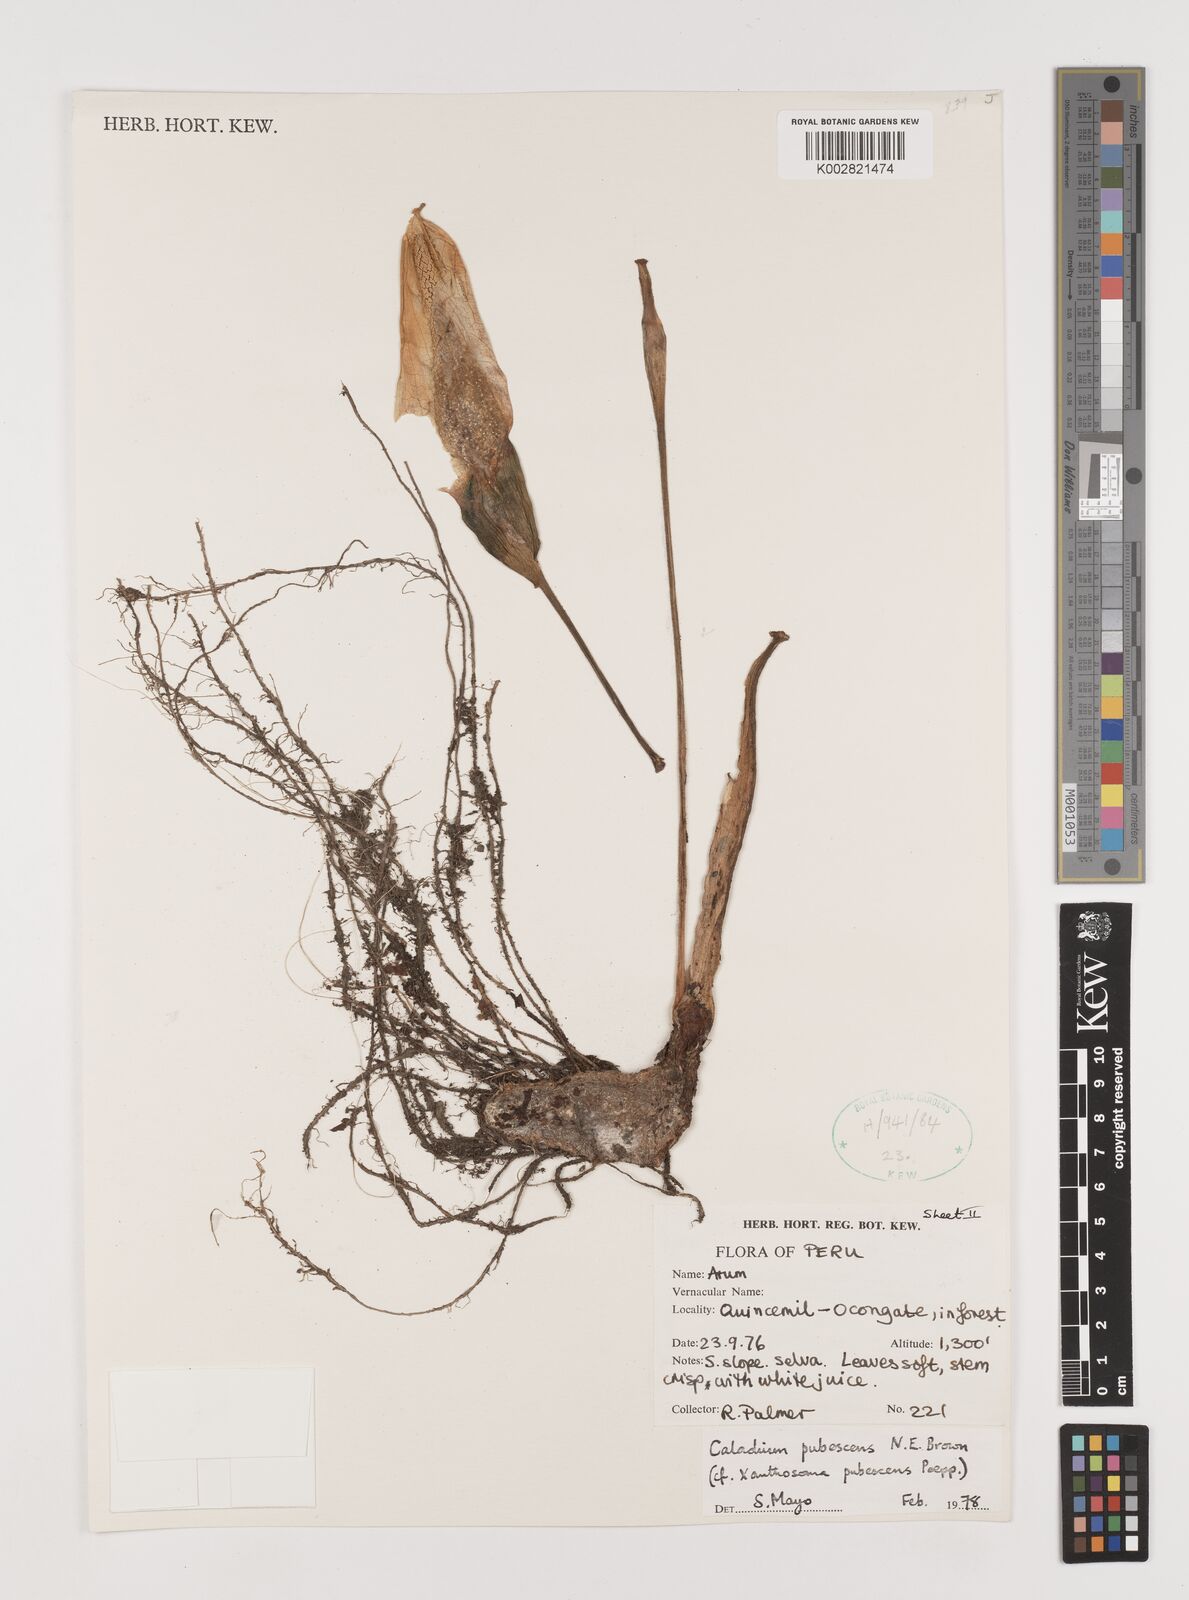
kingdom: Plantae
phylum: Tracheophyta
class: Liliopsida
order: Alismatales
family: Araceae
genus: Xanthosoma
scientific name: Xanthosoma pubescens
